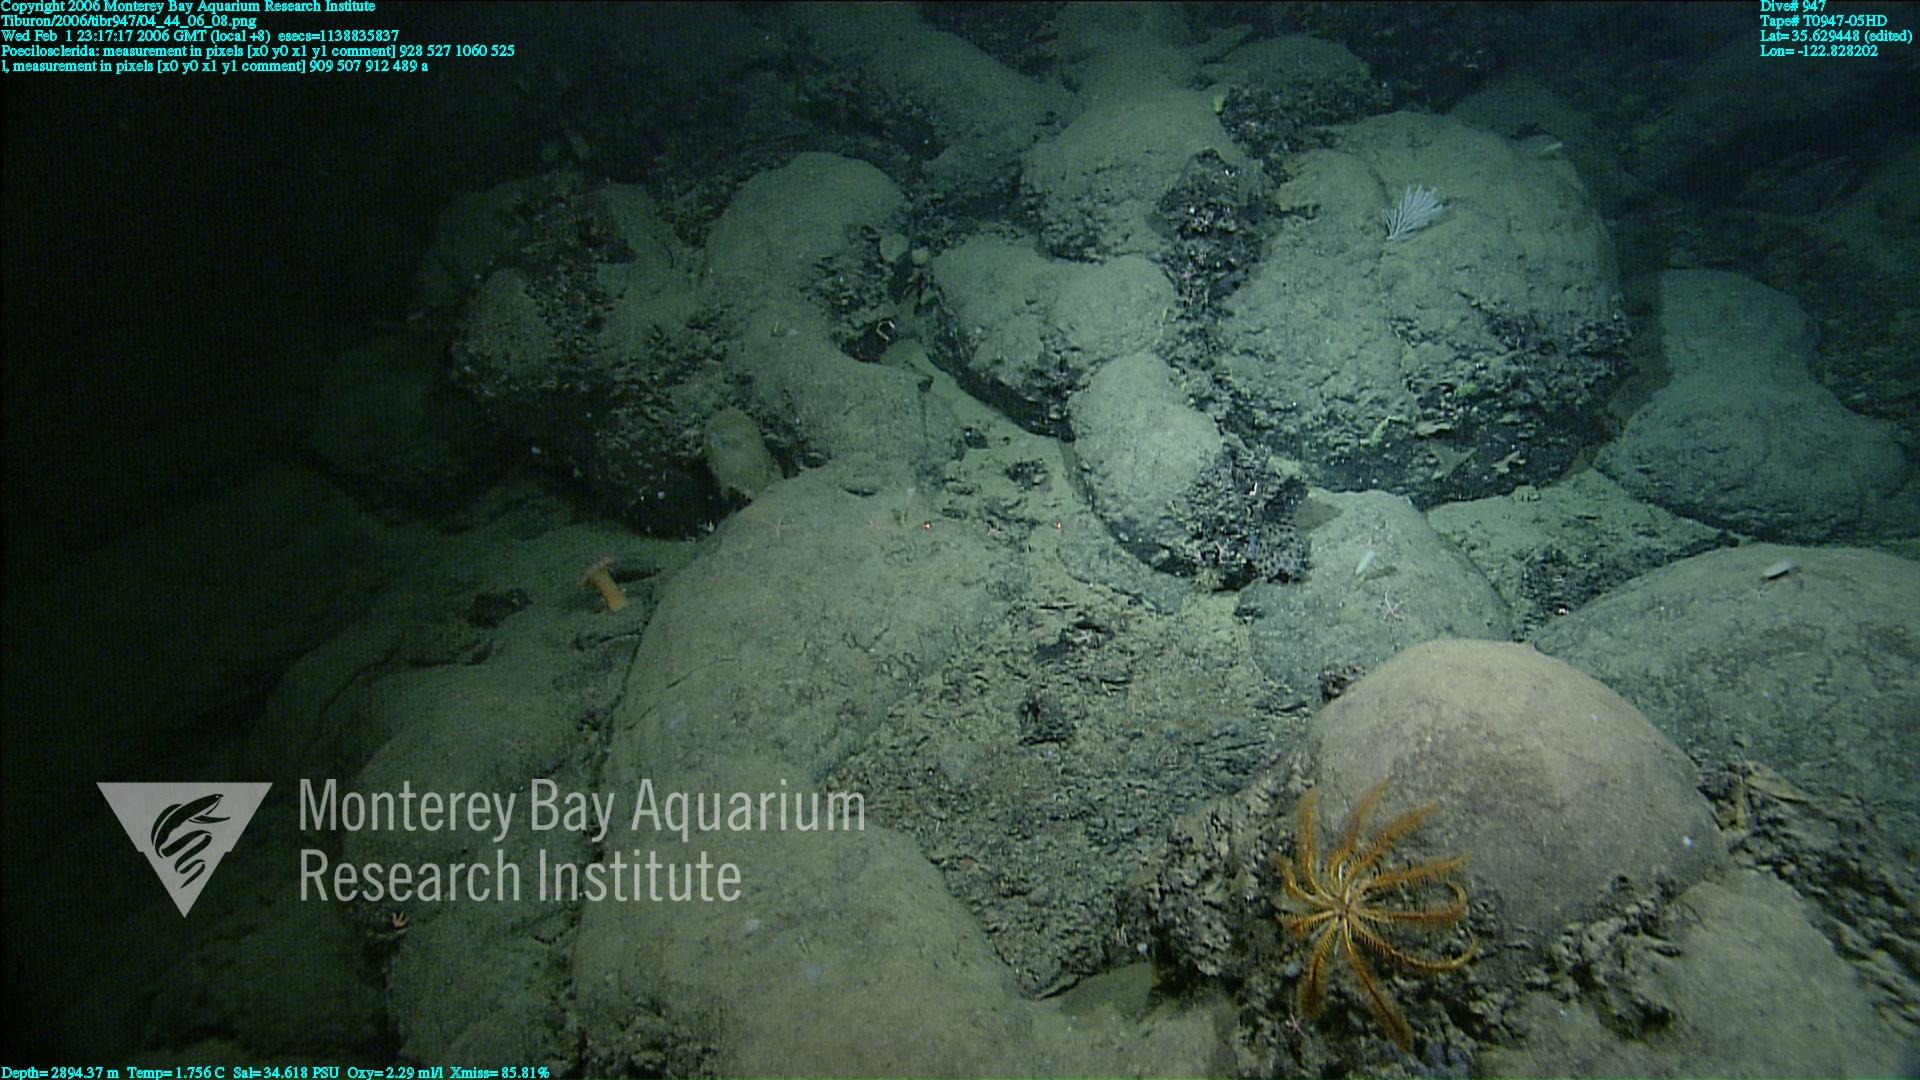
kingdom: Animalia
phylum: Porifera
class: Demospongiae
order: Poecilosclerida
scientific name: Poecilosclerida
